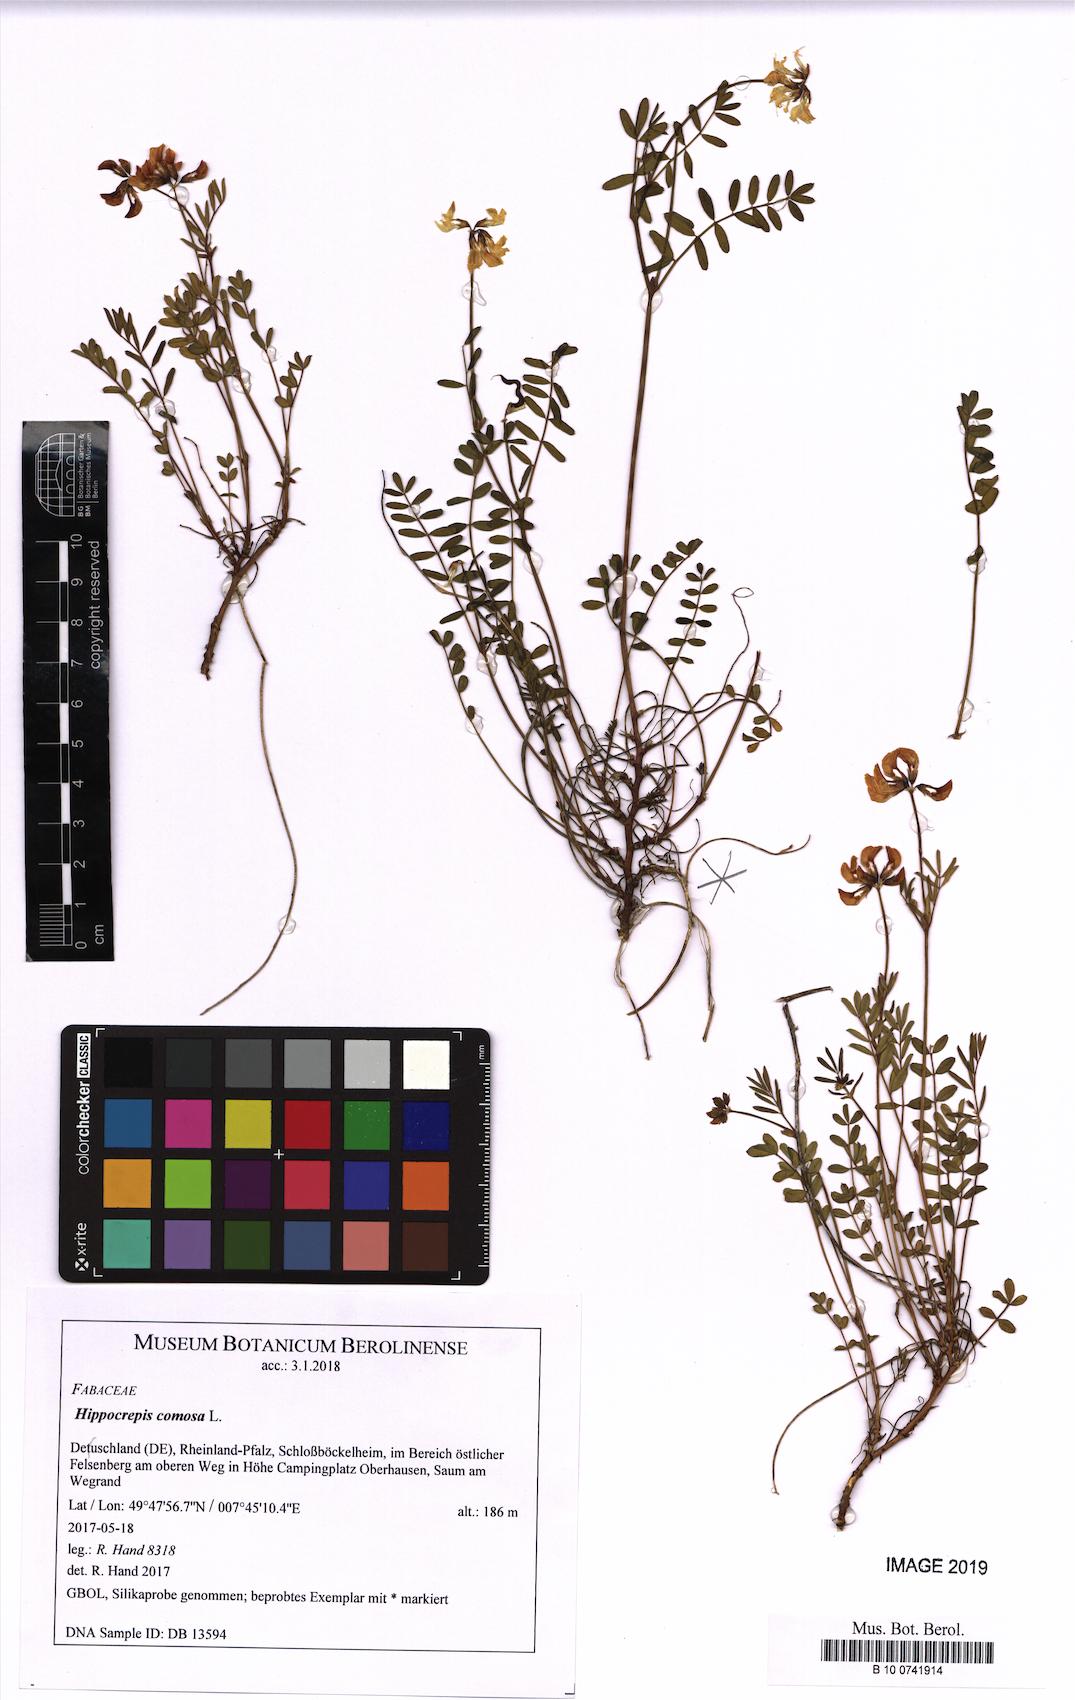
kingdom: Plantae
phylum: Tracheophyta
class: Magnoliopsida
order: Fabales
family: Fabaceae
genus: Hippocrepis
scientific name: Hippocrepis comosa
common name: Horseshoe vetch
